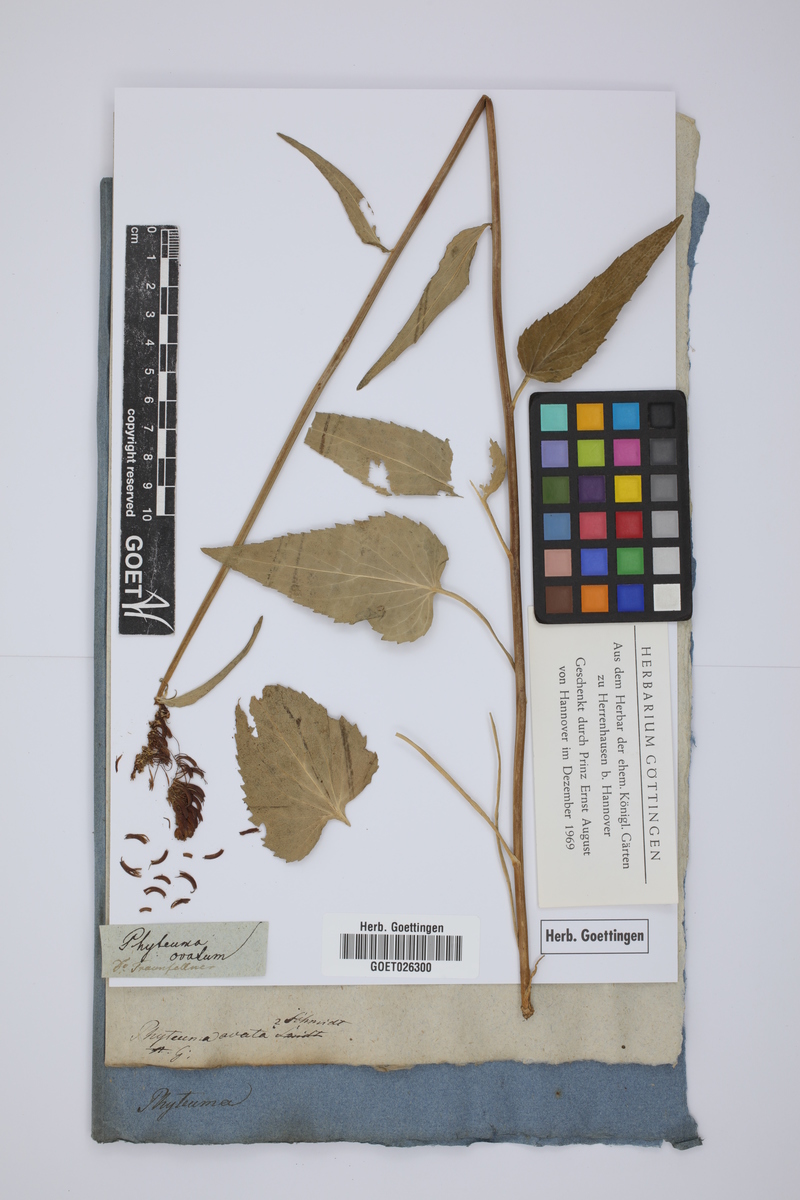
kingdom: Plantae
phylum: Tracheophyta
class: Magnoliopsida
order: Asterales
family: Campanulaceae
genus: Phyteuma
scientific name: Phyteuma nigrum
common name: Black rampion
